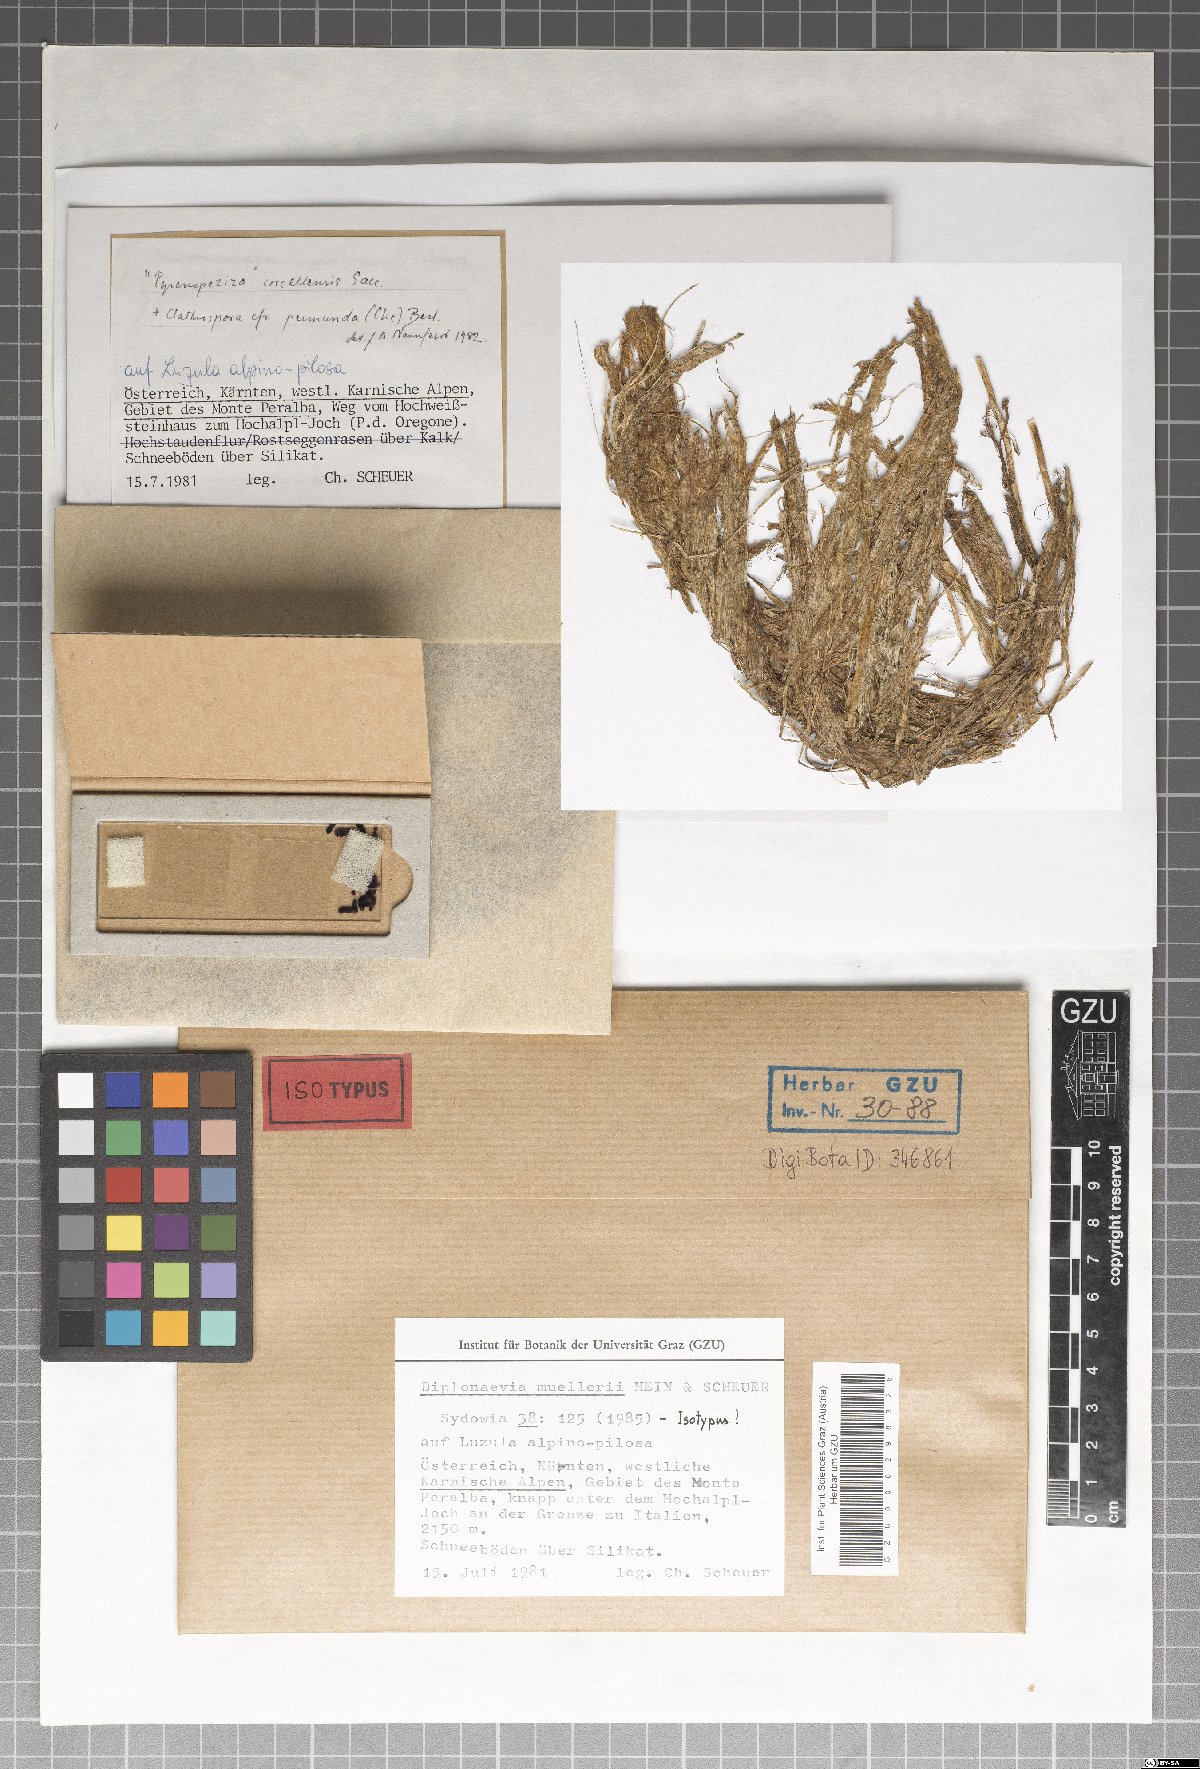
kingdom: Fungi
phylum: Ascomycota
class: Leotiomycetes
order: Helotiales
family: Calloriaceae
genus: Diplonaevia
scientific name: Diplonaevia muelleri
